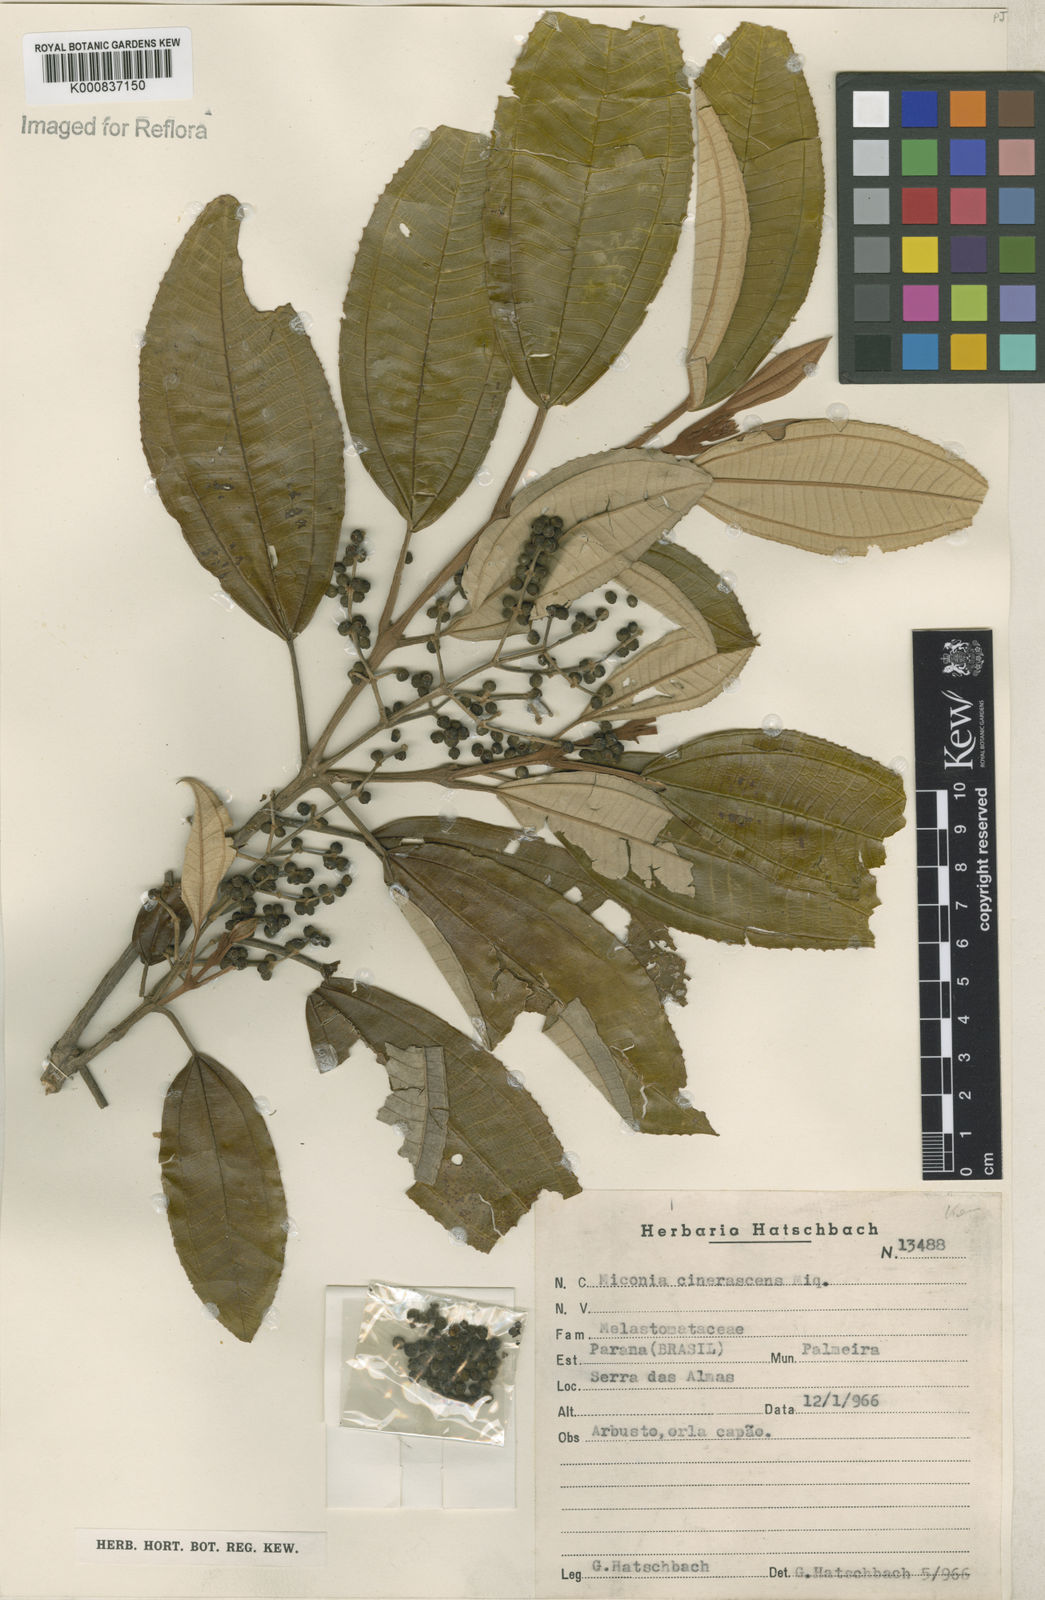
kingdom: Plantae
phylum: Tracheophyta
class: Magnoliopsida
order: Myrtales
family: Melastomataceae
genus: Miconia
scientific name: Miconia cinerascens
